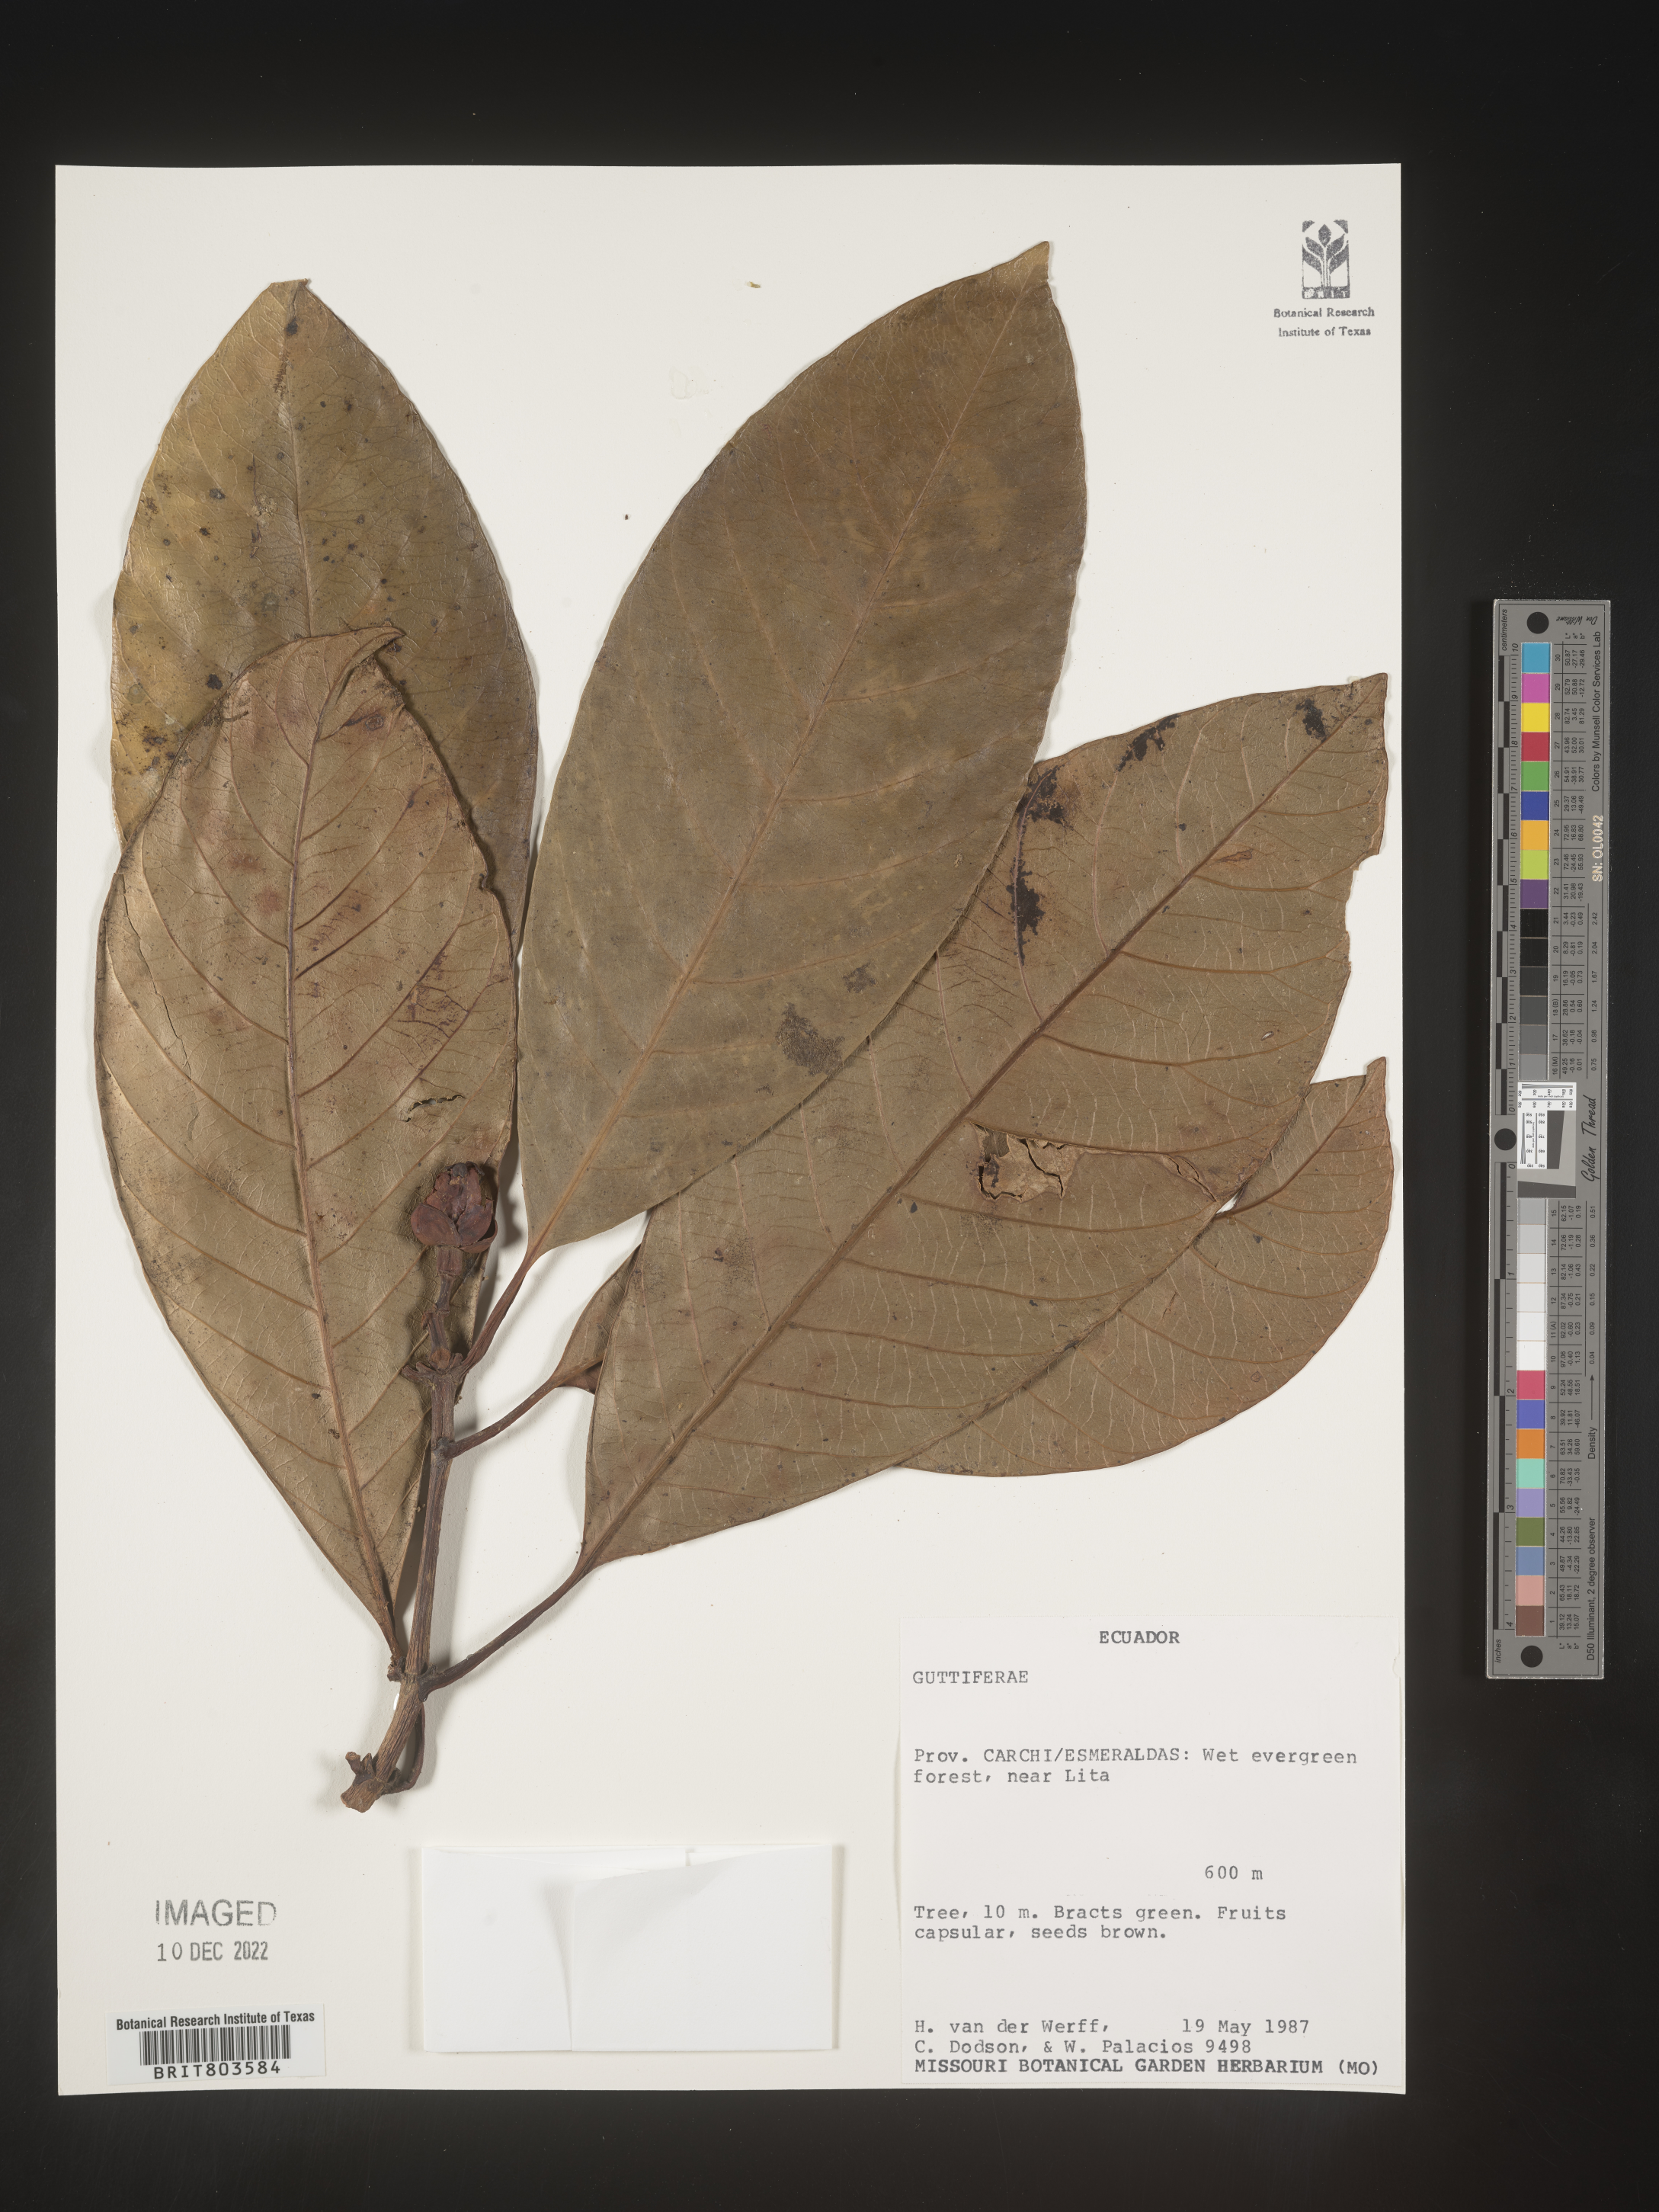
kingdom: Plantae
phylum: Tracheophyta
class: Magnoliopsida
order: Malpighiales
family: Clusiaceae
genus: Tovomita
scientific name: Tovomita
